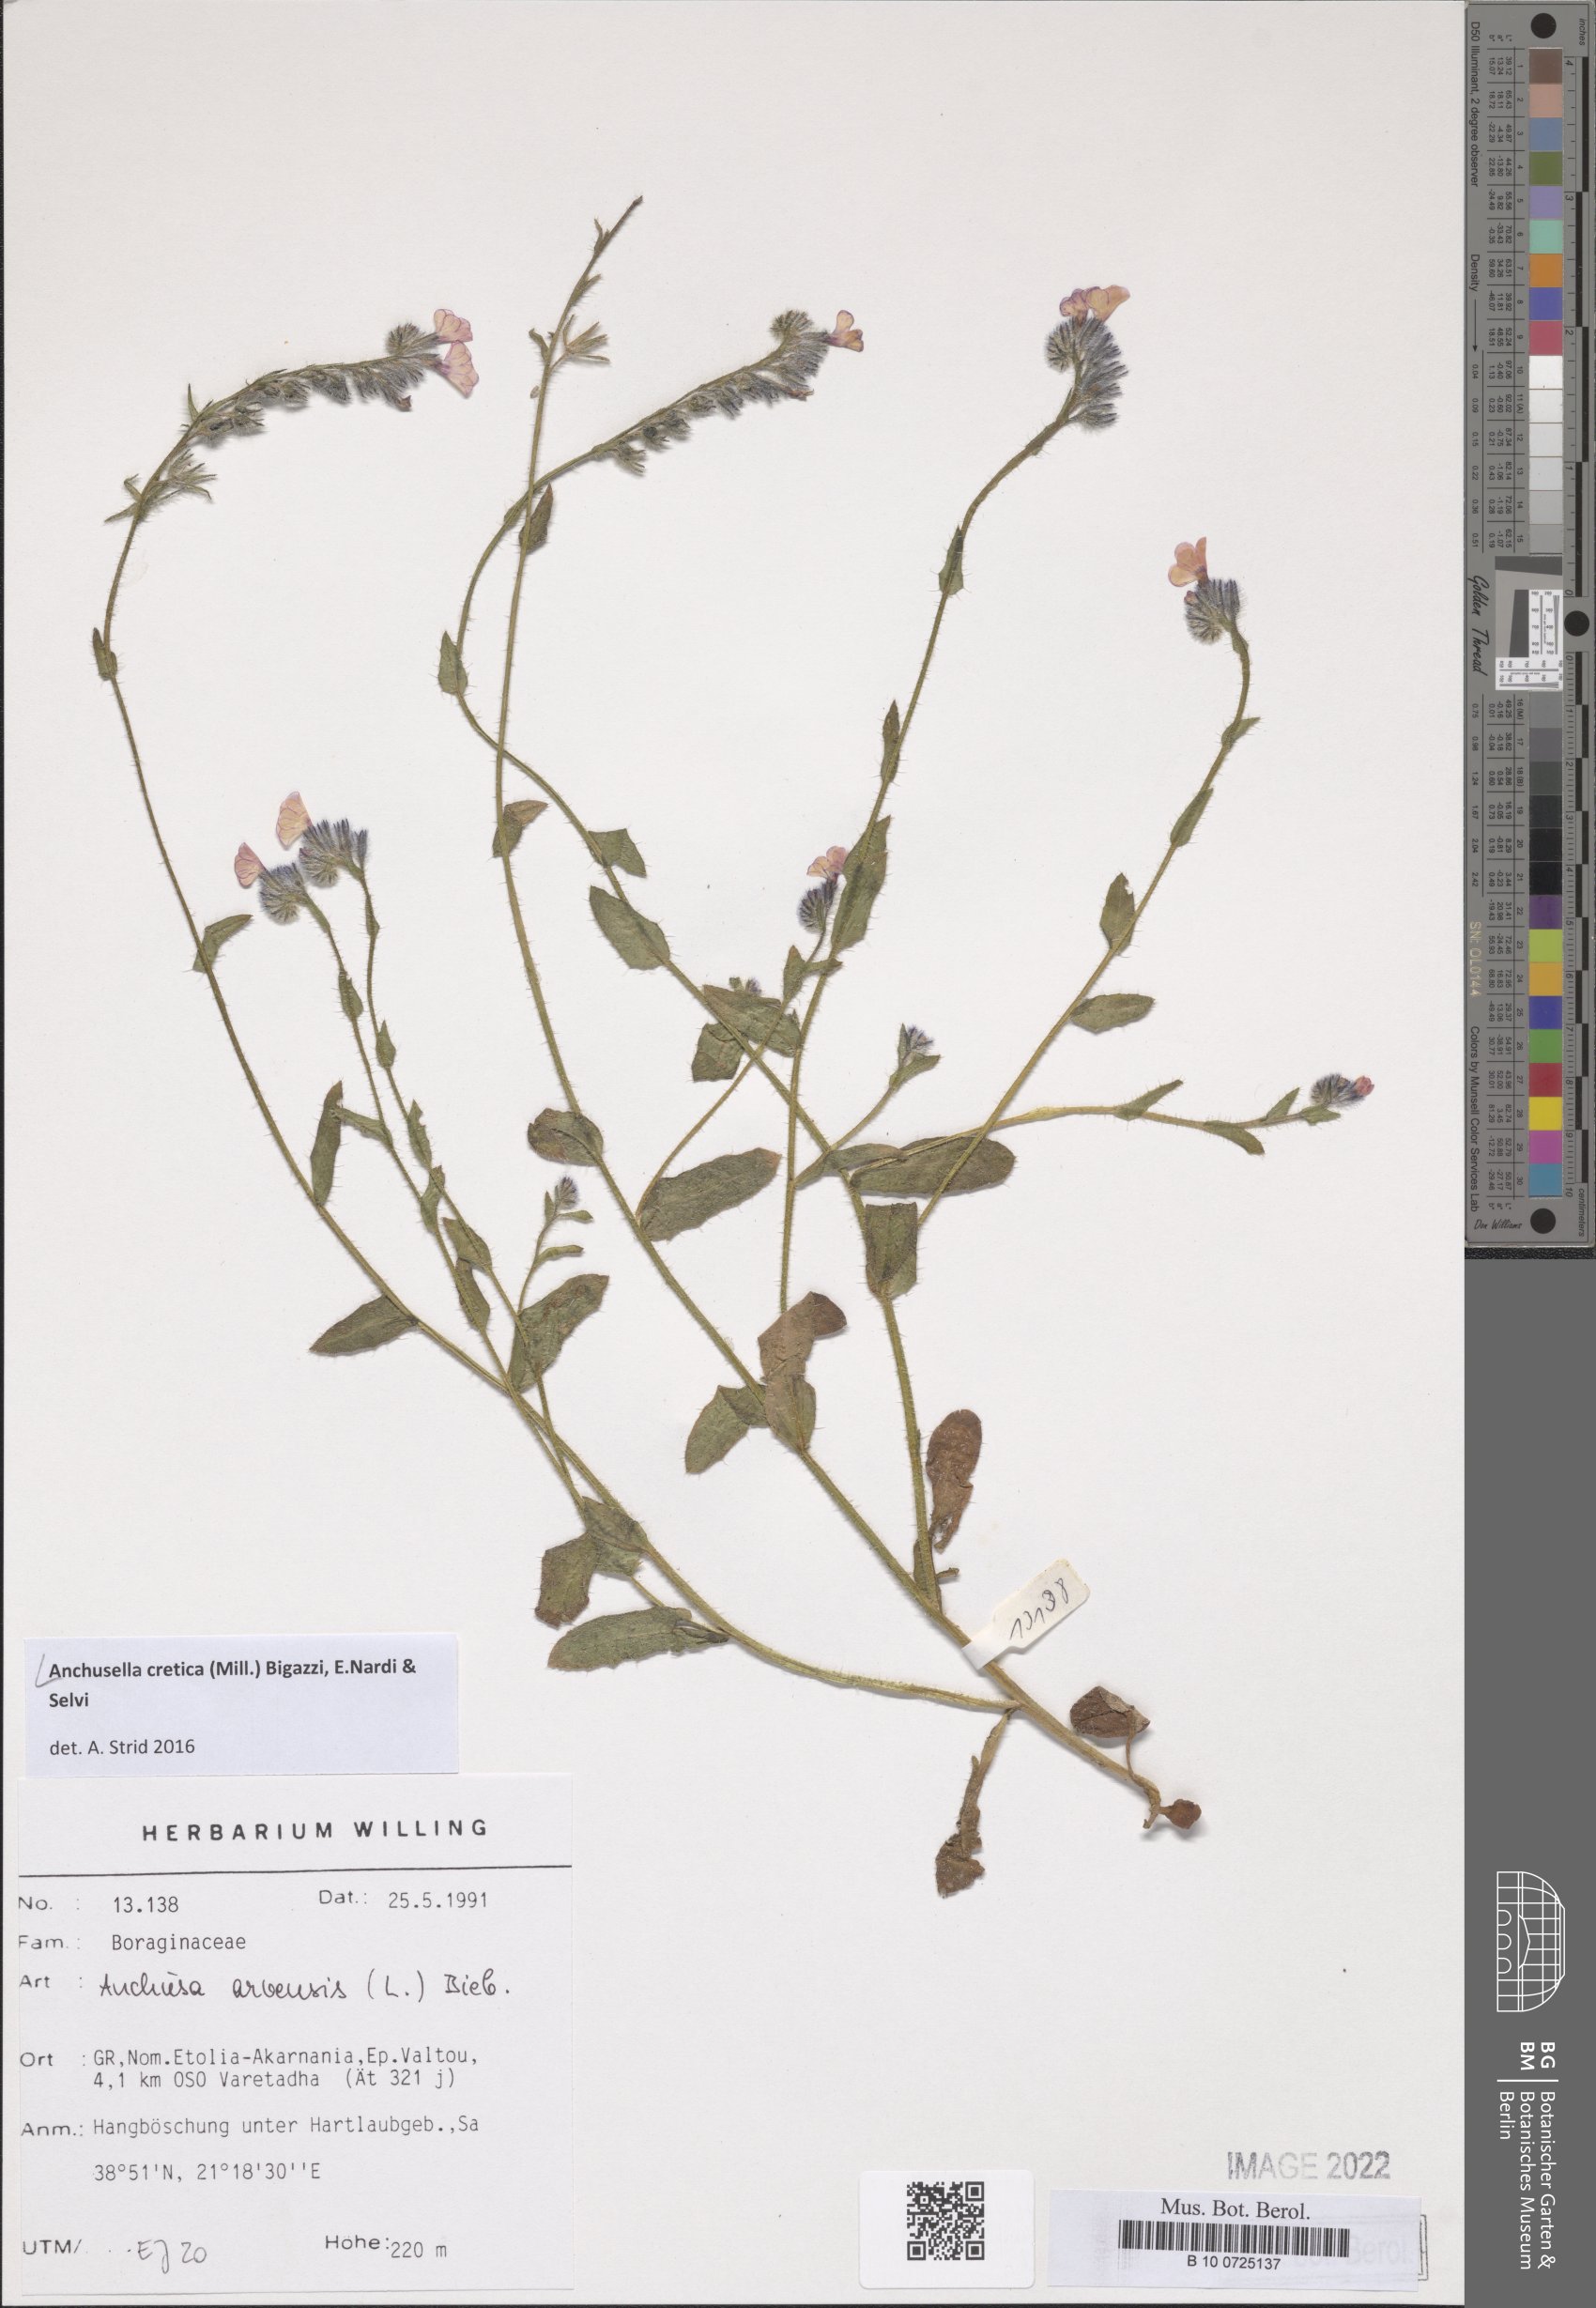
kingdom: Plantae
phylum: Tracheophyta
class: Magnoliopsida
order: Boraginales
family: Boraginaceae
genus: Anchusella
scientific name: Anchusella cretica
